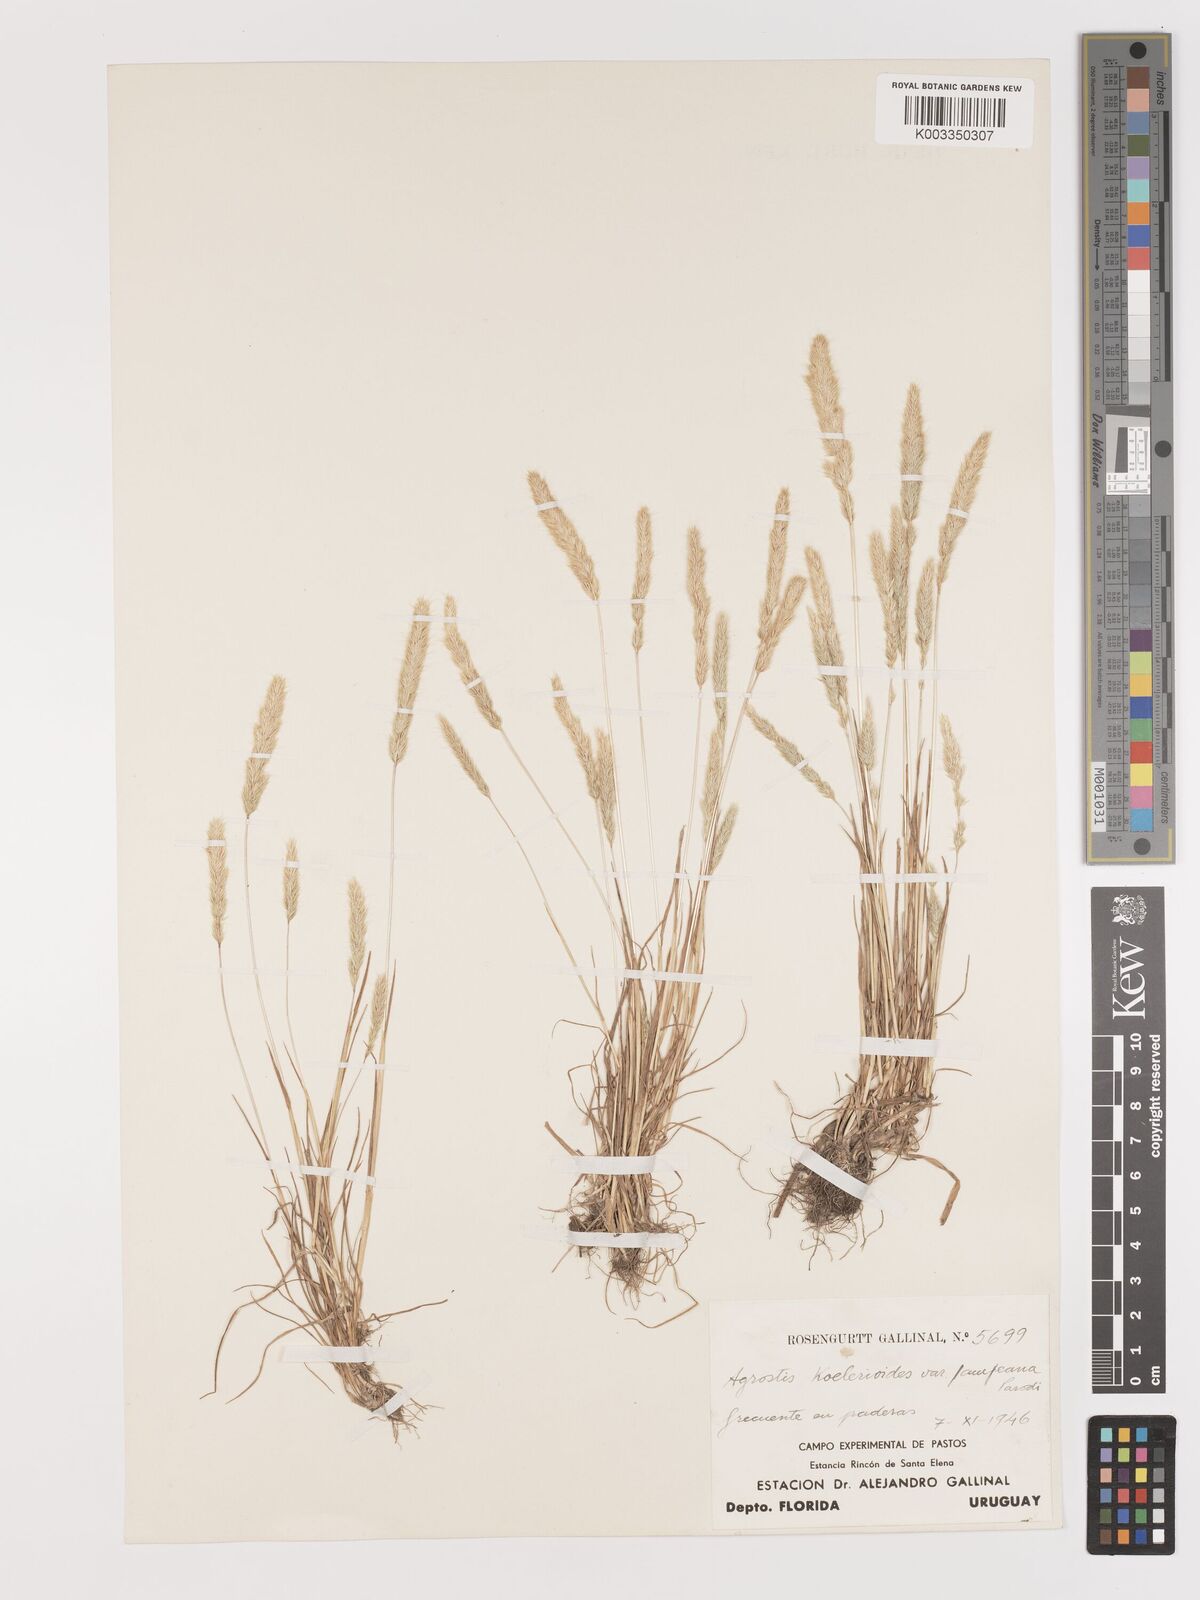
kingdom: Plantae
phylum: Tracheophyta
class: Liliopsida
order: Poales
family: Poaceae
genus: Agrostis
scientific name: Agrostis tandilensis
